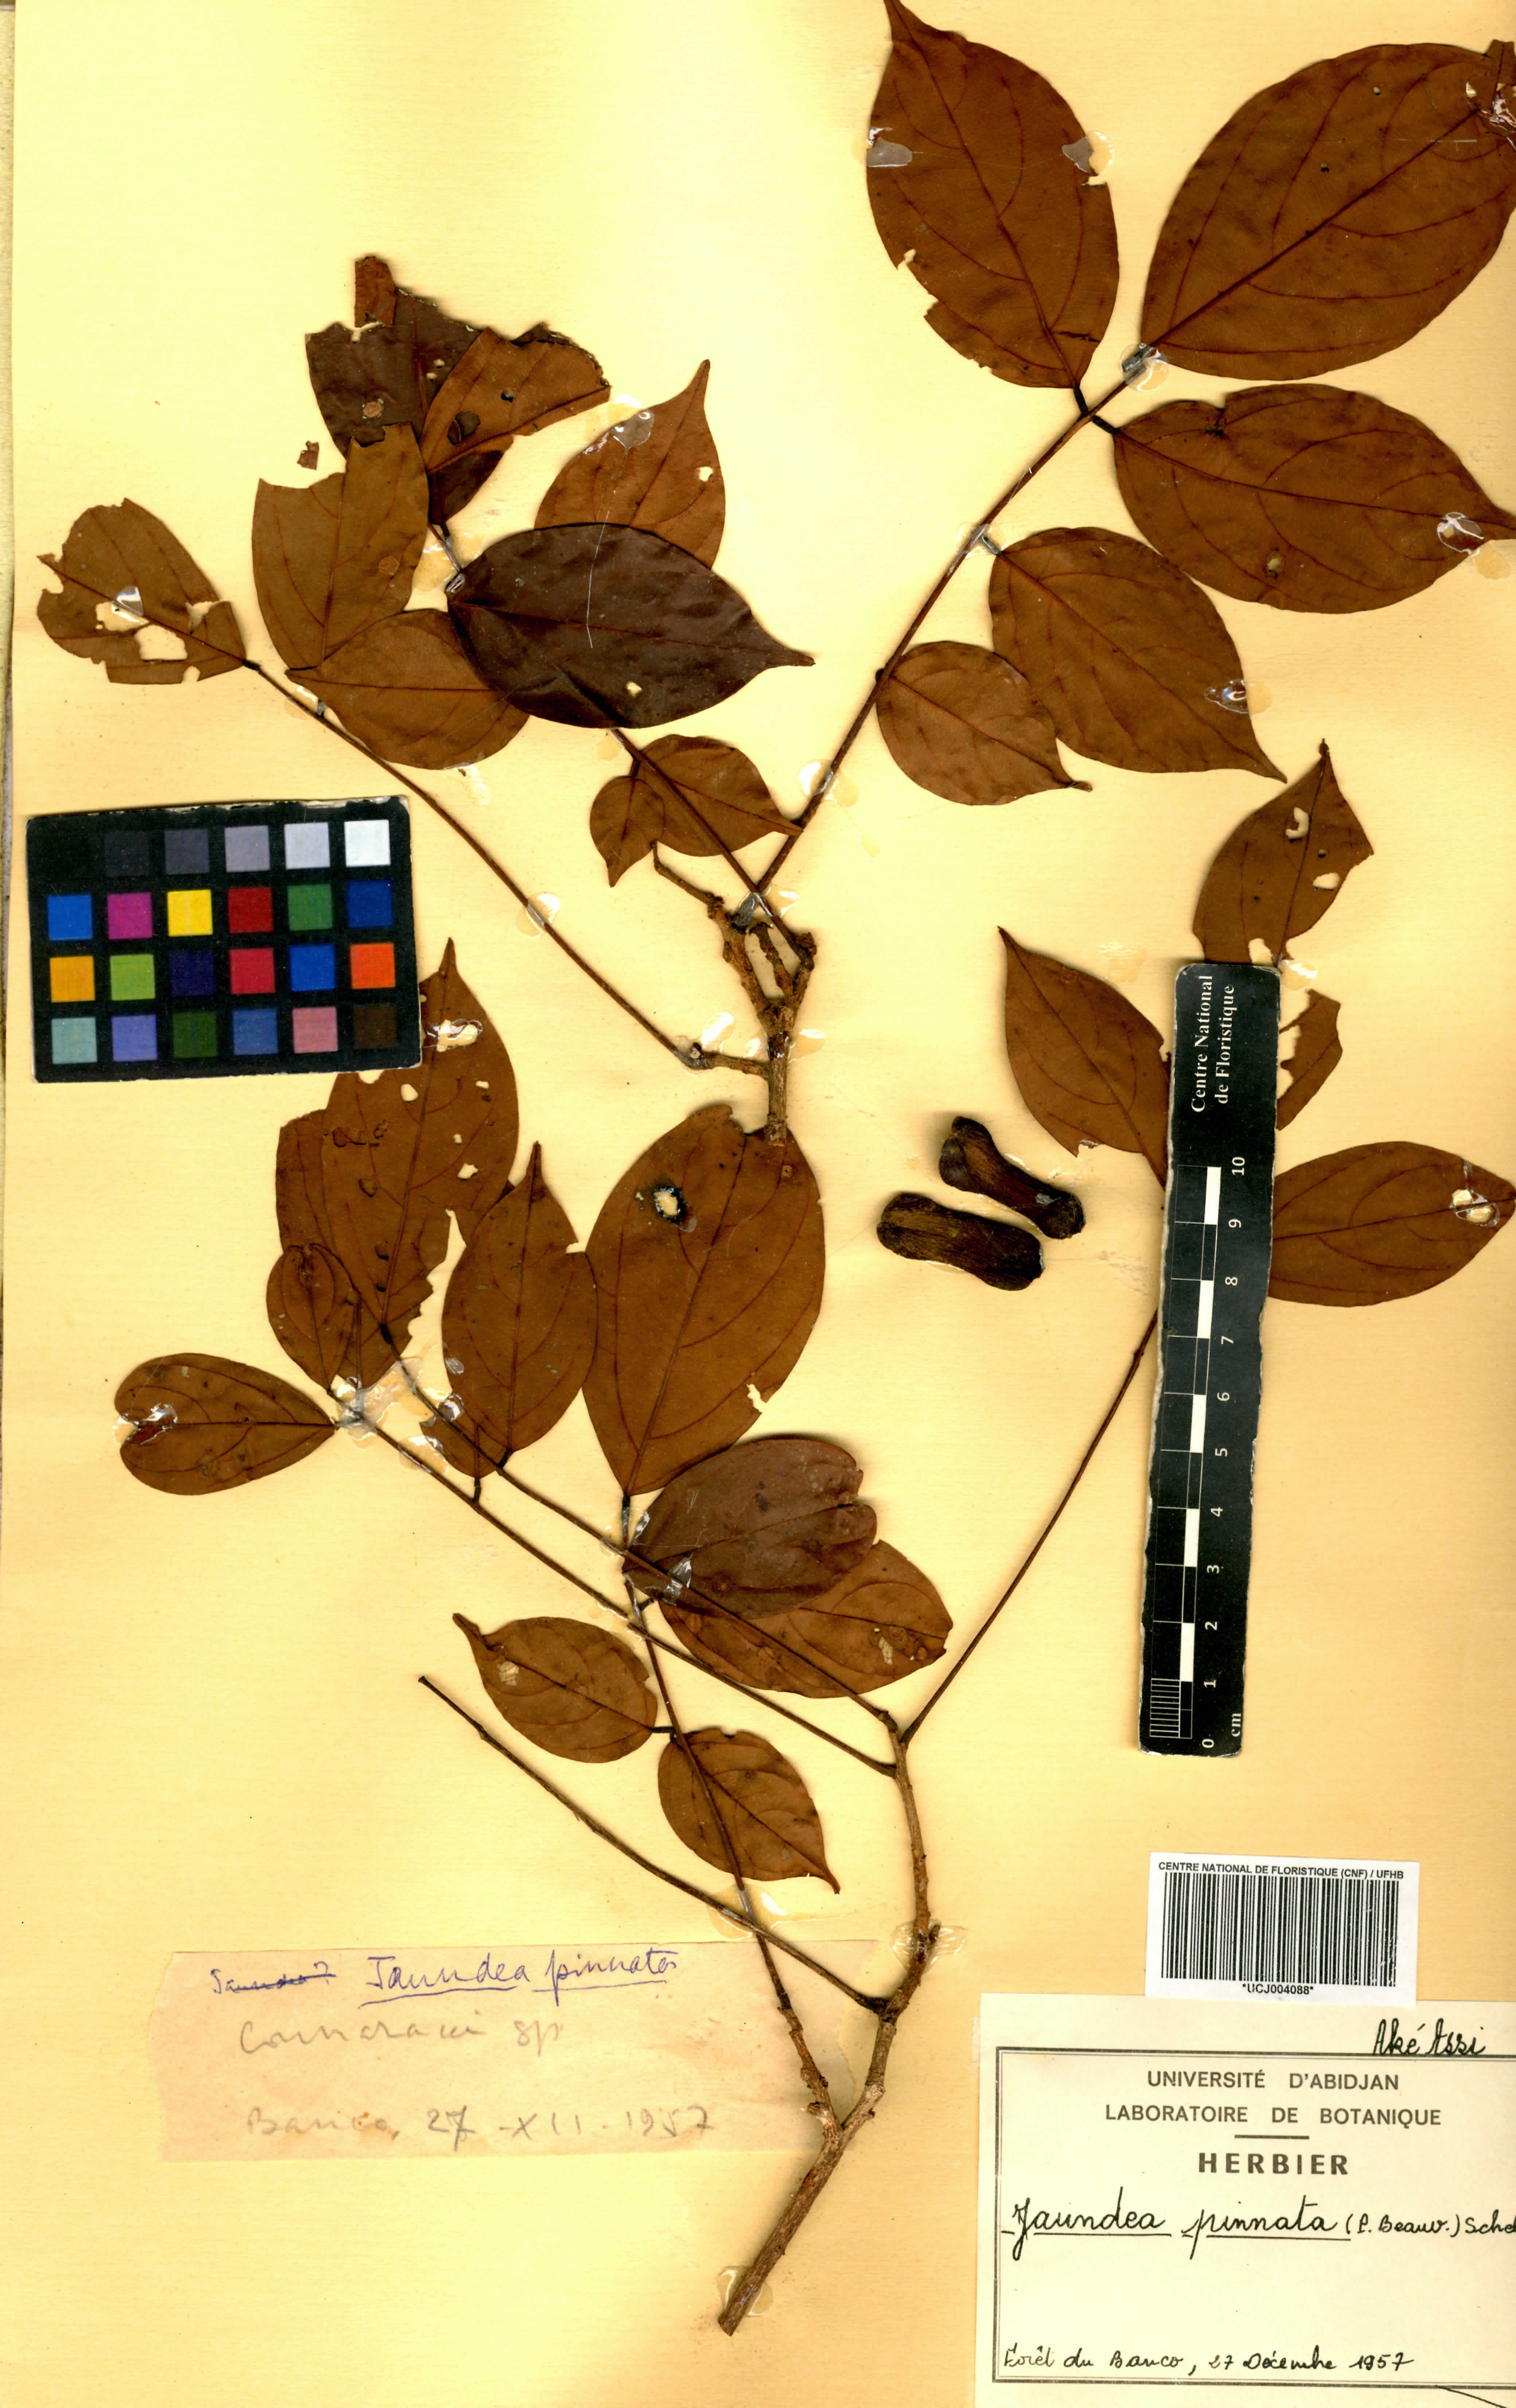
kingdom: Plantae
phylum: Tracheophyta
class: Magnoliopsida
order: Oxalidales
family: Connaraceae
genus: Rourea
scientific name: Rourea thomsonii
